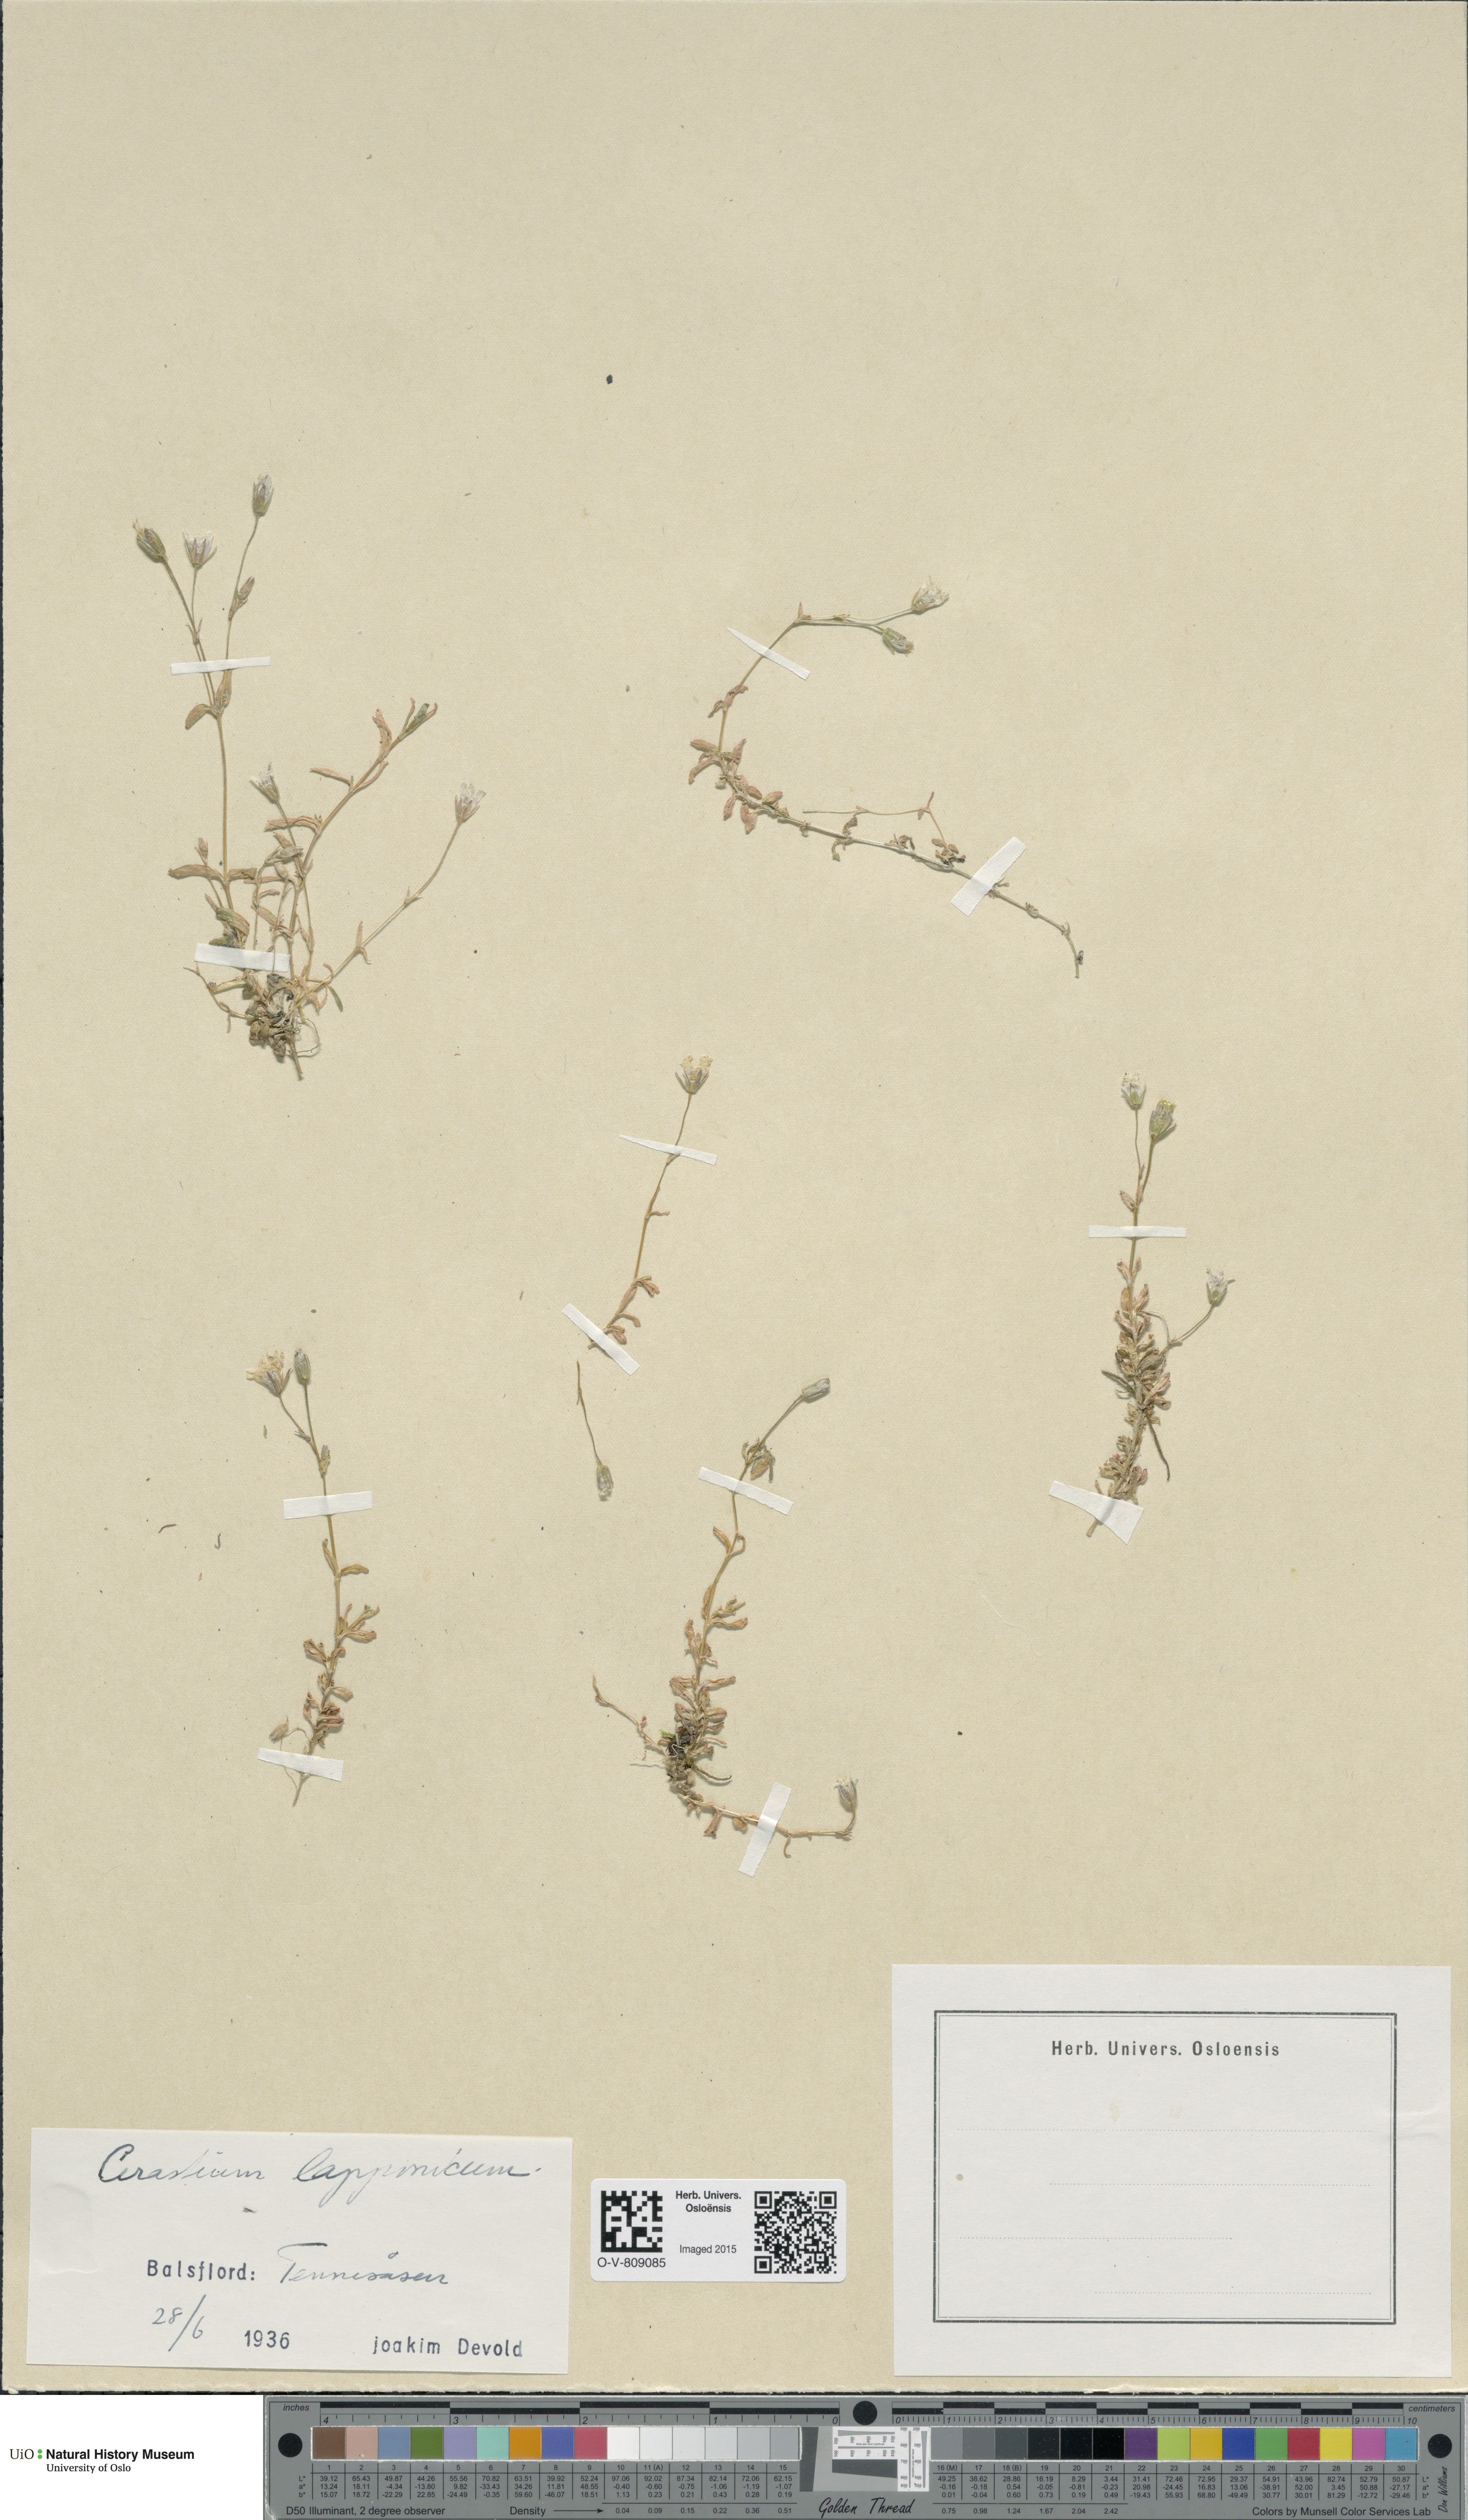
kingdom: Plantae
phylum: Tracheophyta
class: Magnoliopsida
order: Caryophyllales
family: Caryophyllaceae
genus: Dichodon
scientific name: Dichodon cerastoides
